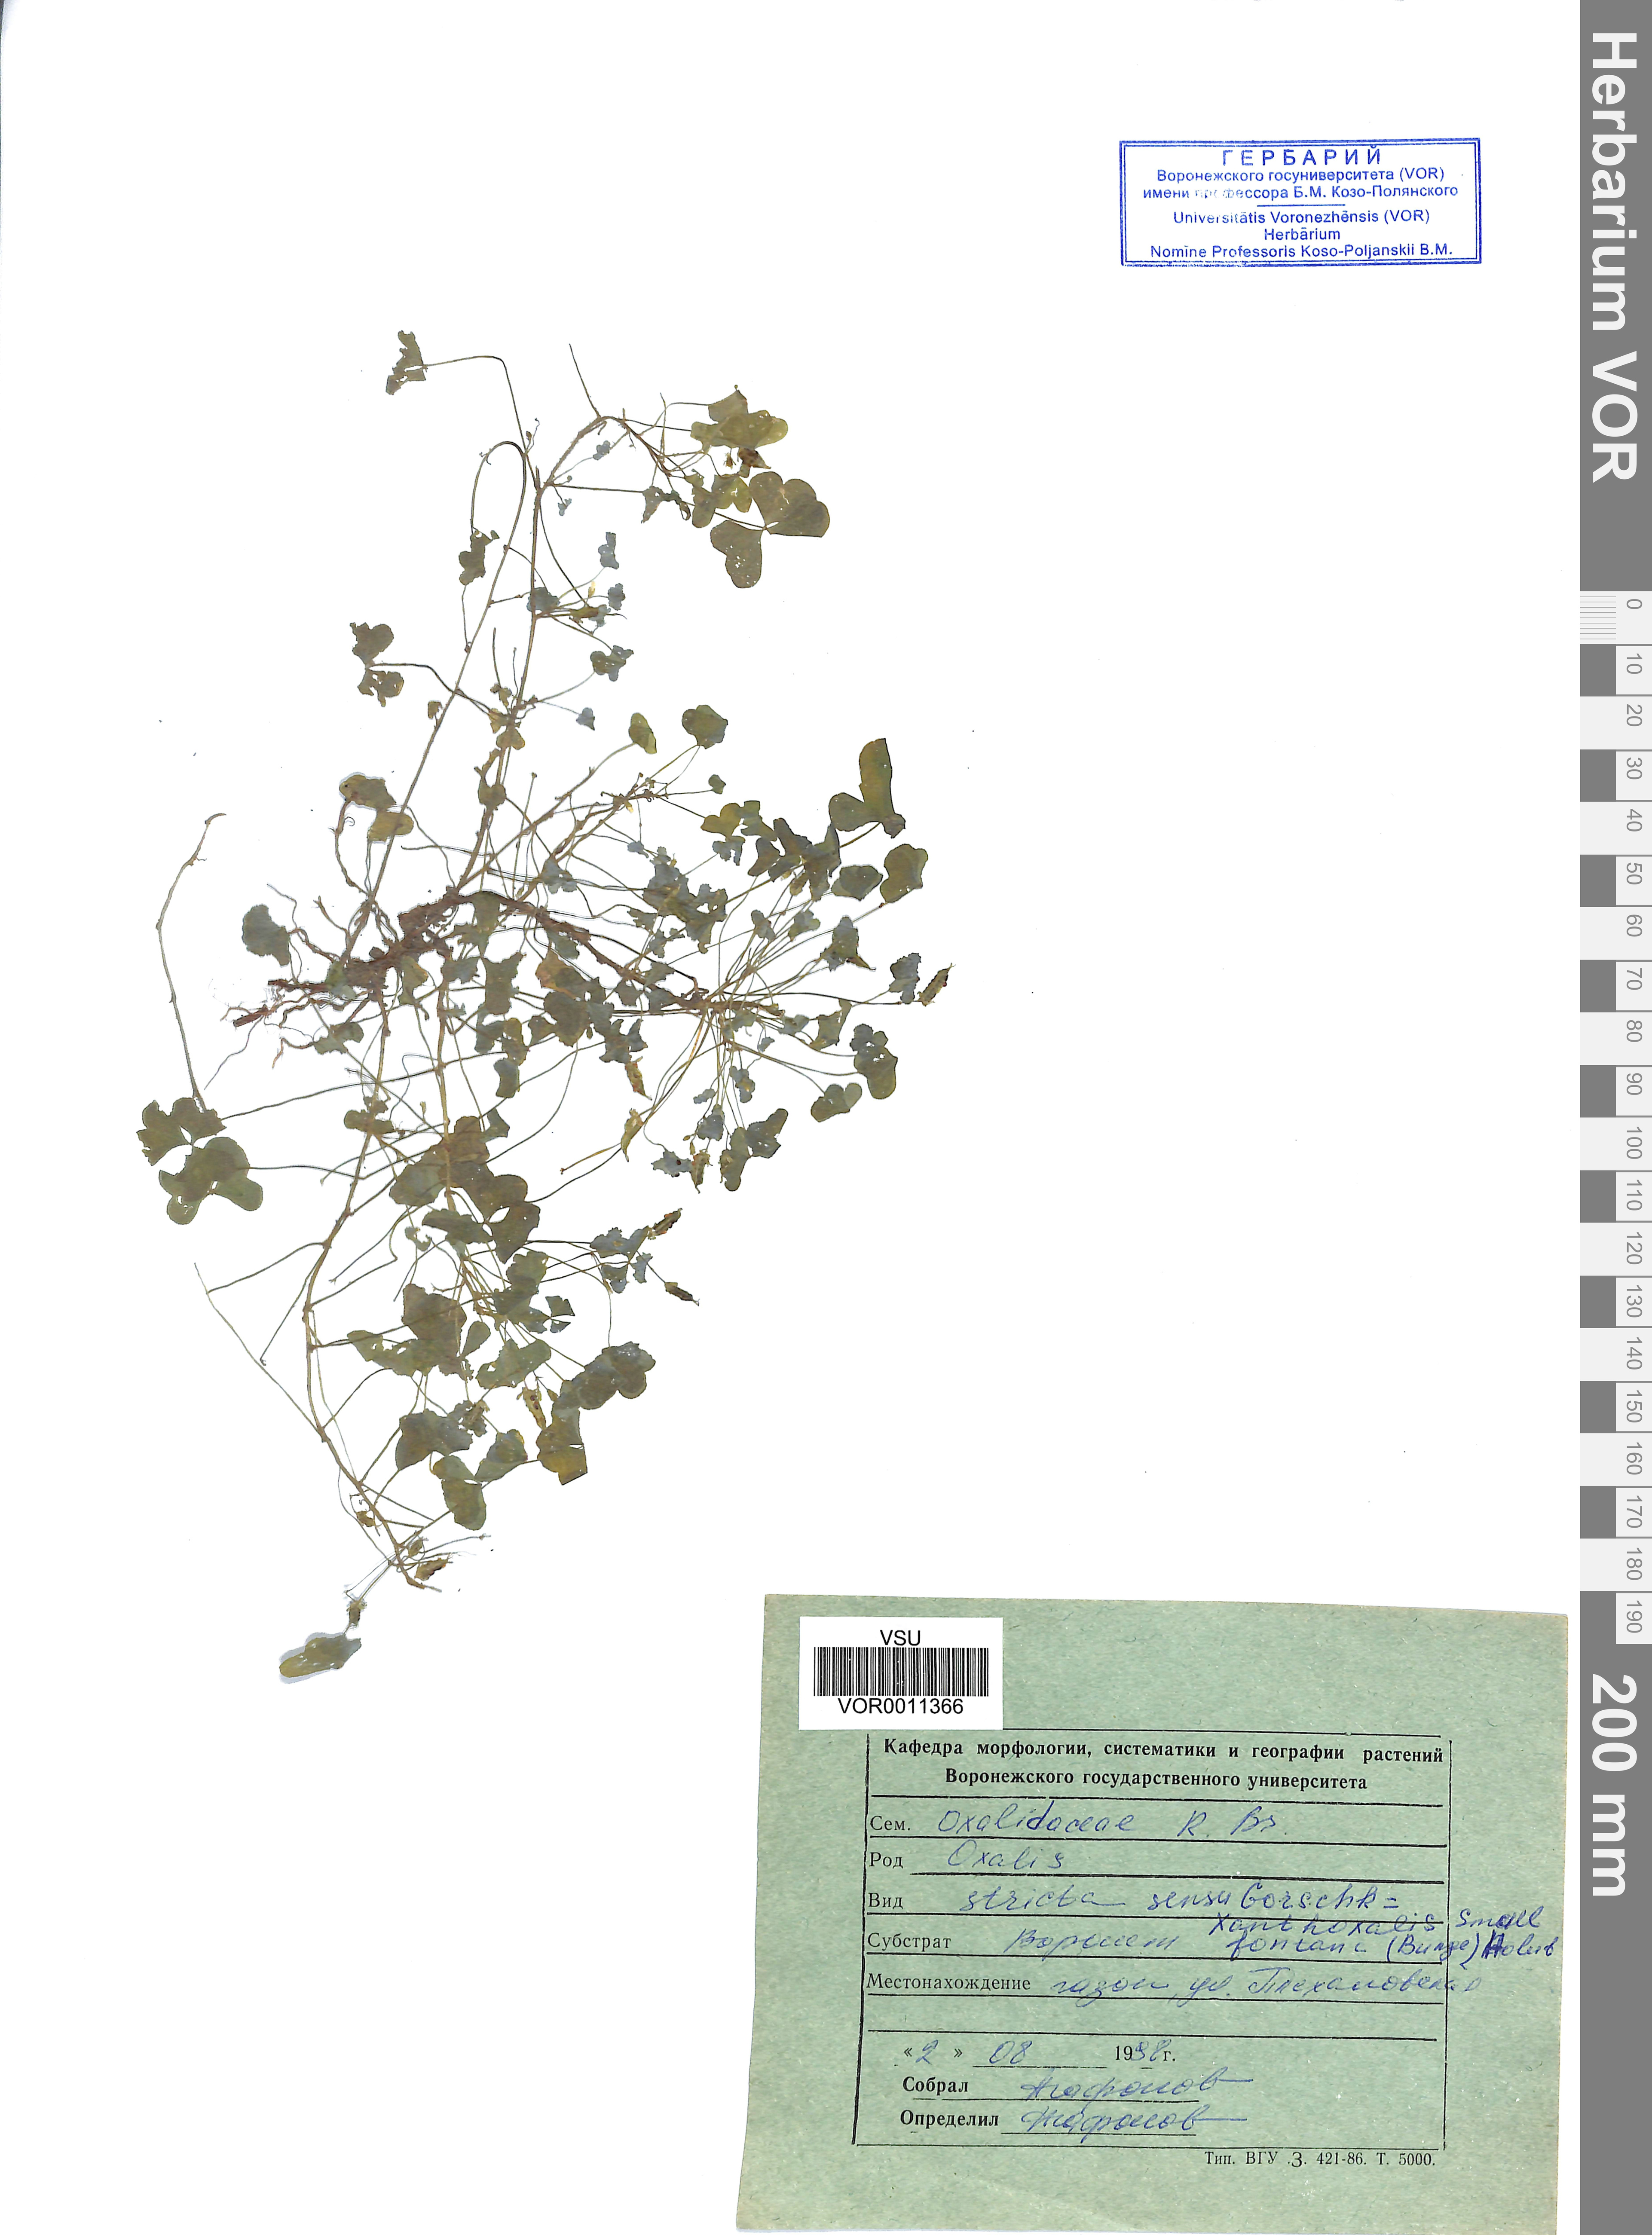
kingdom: Plantae
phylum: Tracheophyta
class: Magnoliopsida
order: Oxalidales
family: Oxalidaceae
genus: Oxalis
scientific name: Oxalis stricta
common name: Upright yellow-sorrel
